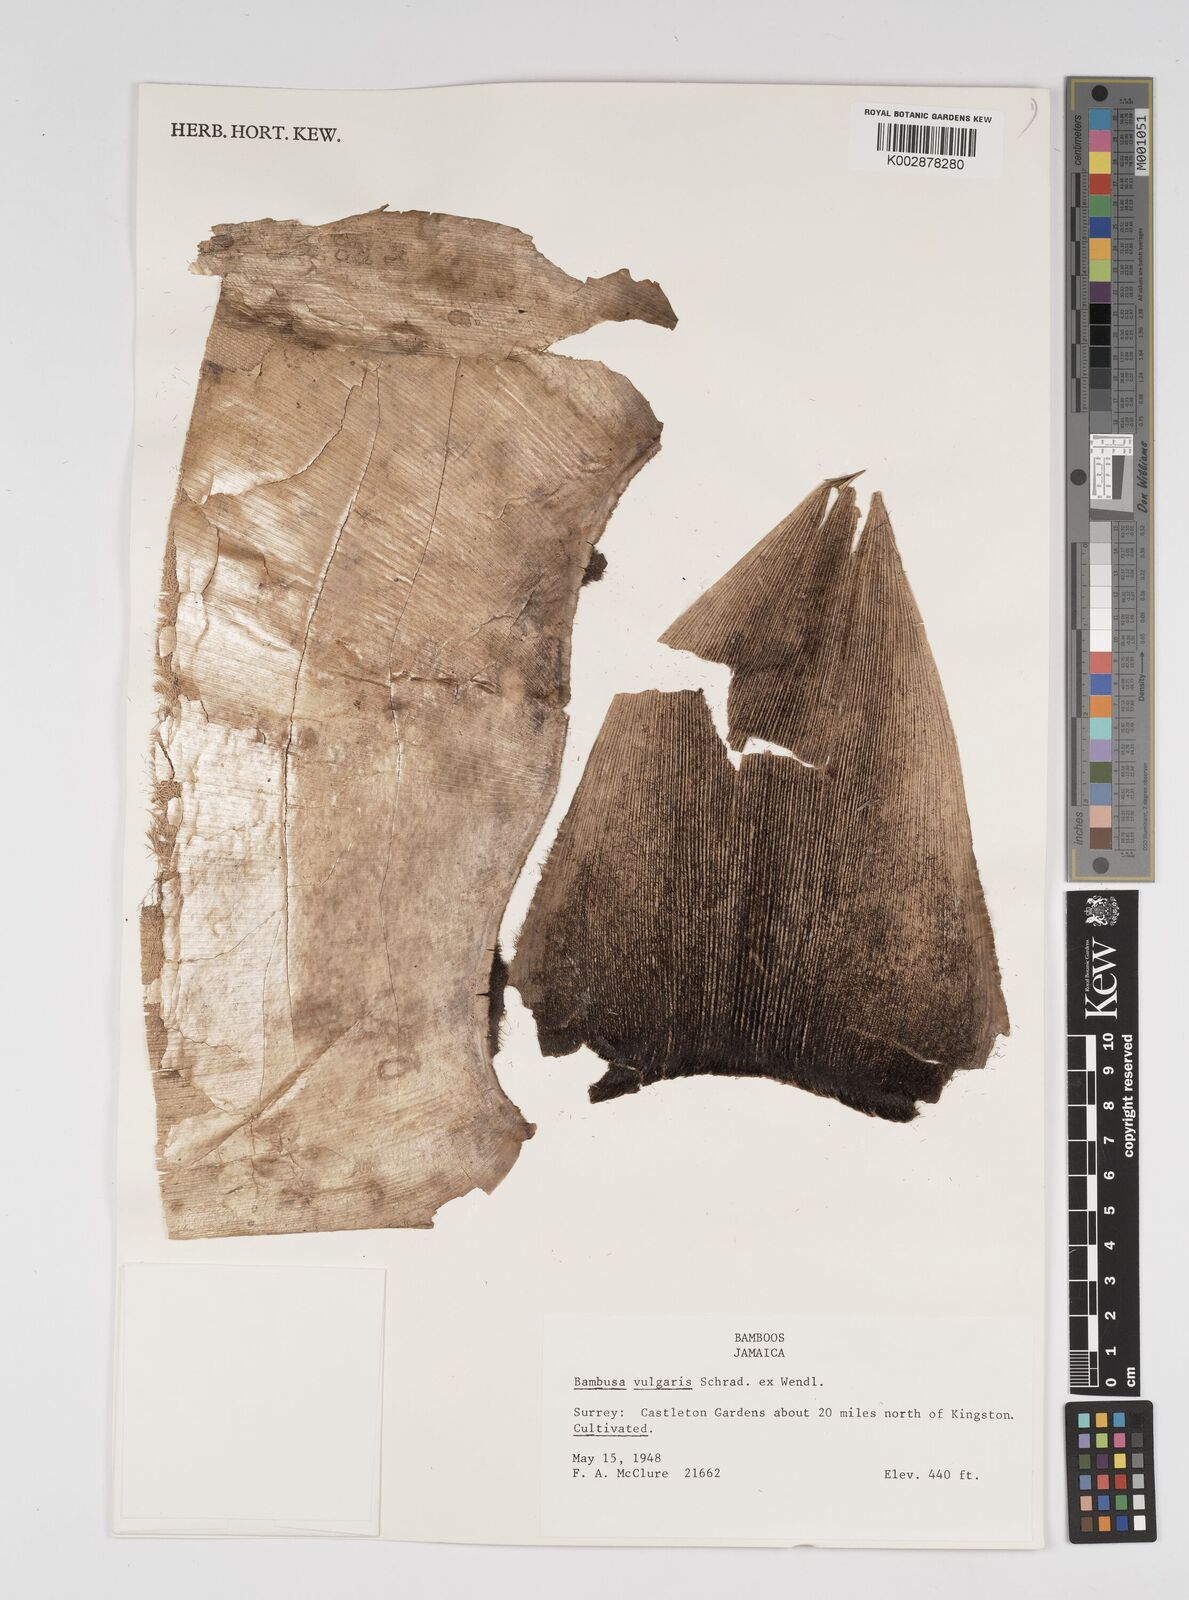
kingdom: Plantae
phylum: Tracheophyta
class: Liliopsida
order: Poales
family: Poaceae
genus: Bambusa
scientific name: Bambusa vulgaris
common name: Common bamboo
